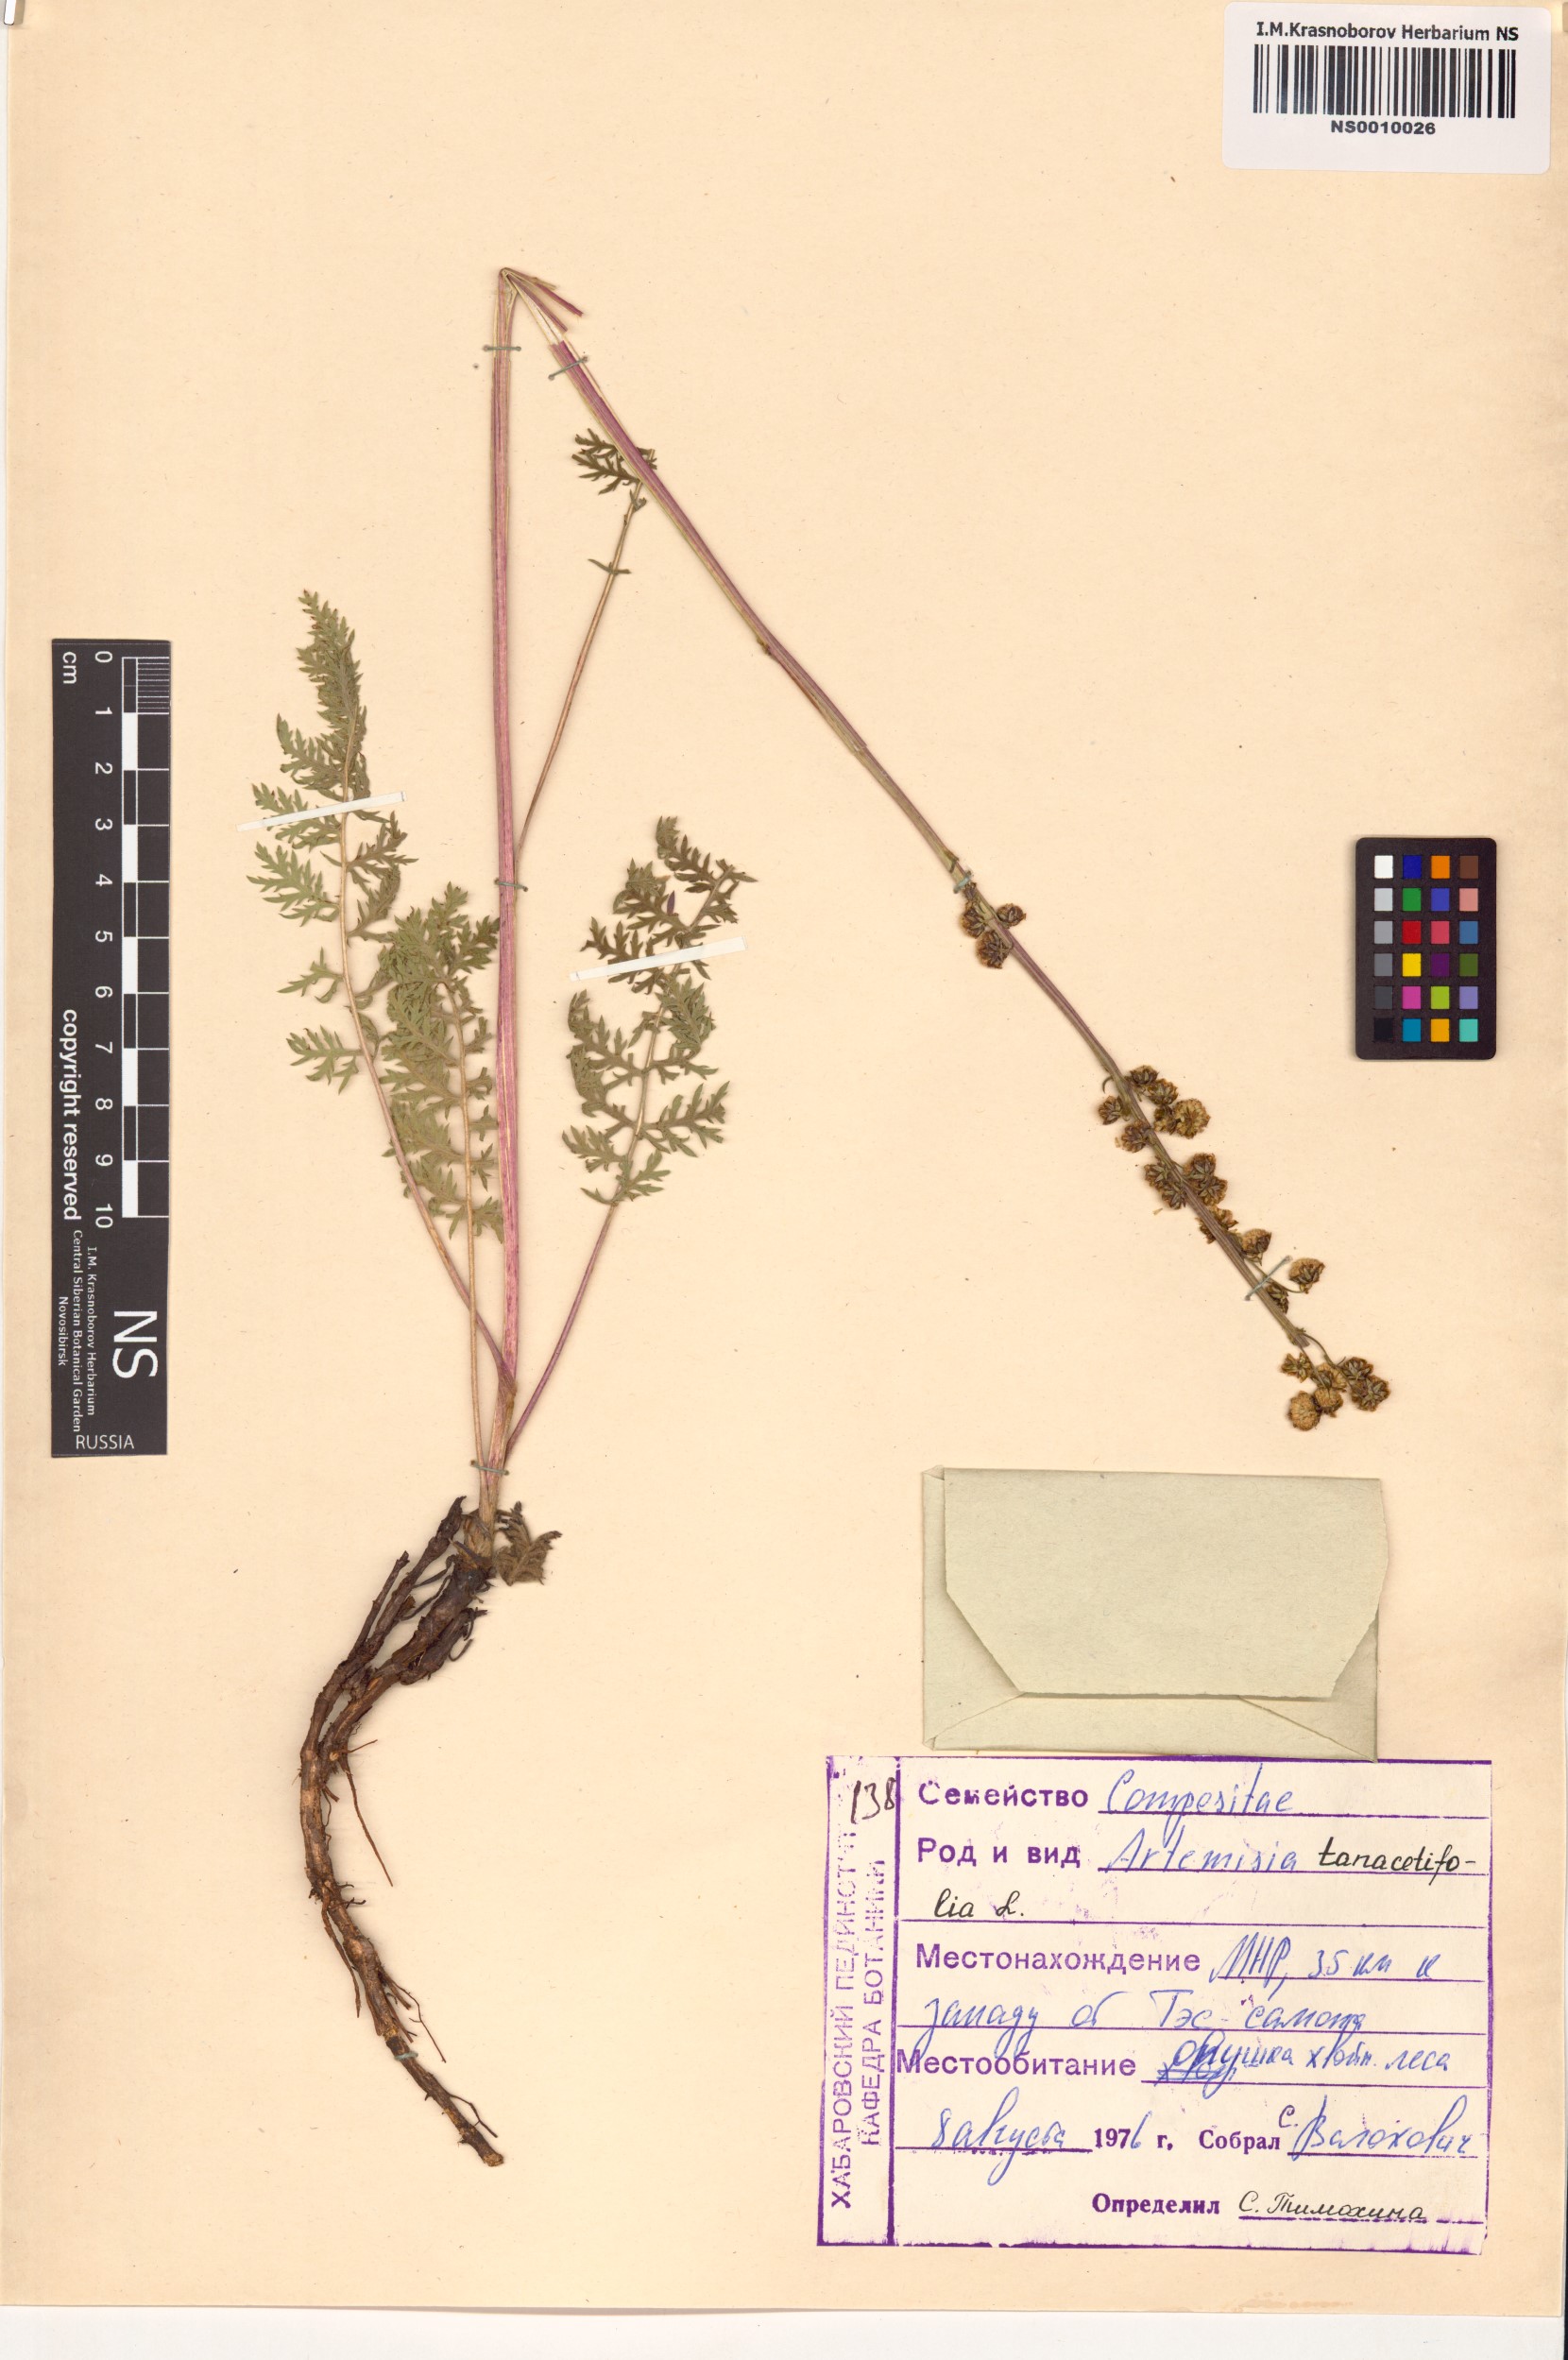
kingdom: Plantae
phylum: Tracheophyta
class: Magnoliopsida
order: Asterales
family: Asteraceae
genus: Artemisia
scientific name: Artemisia tanacetifolia
